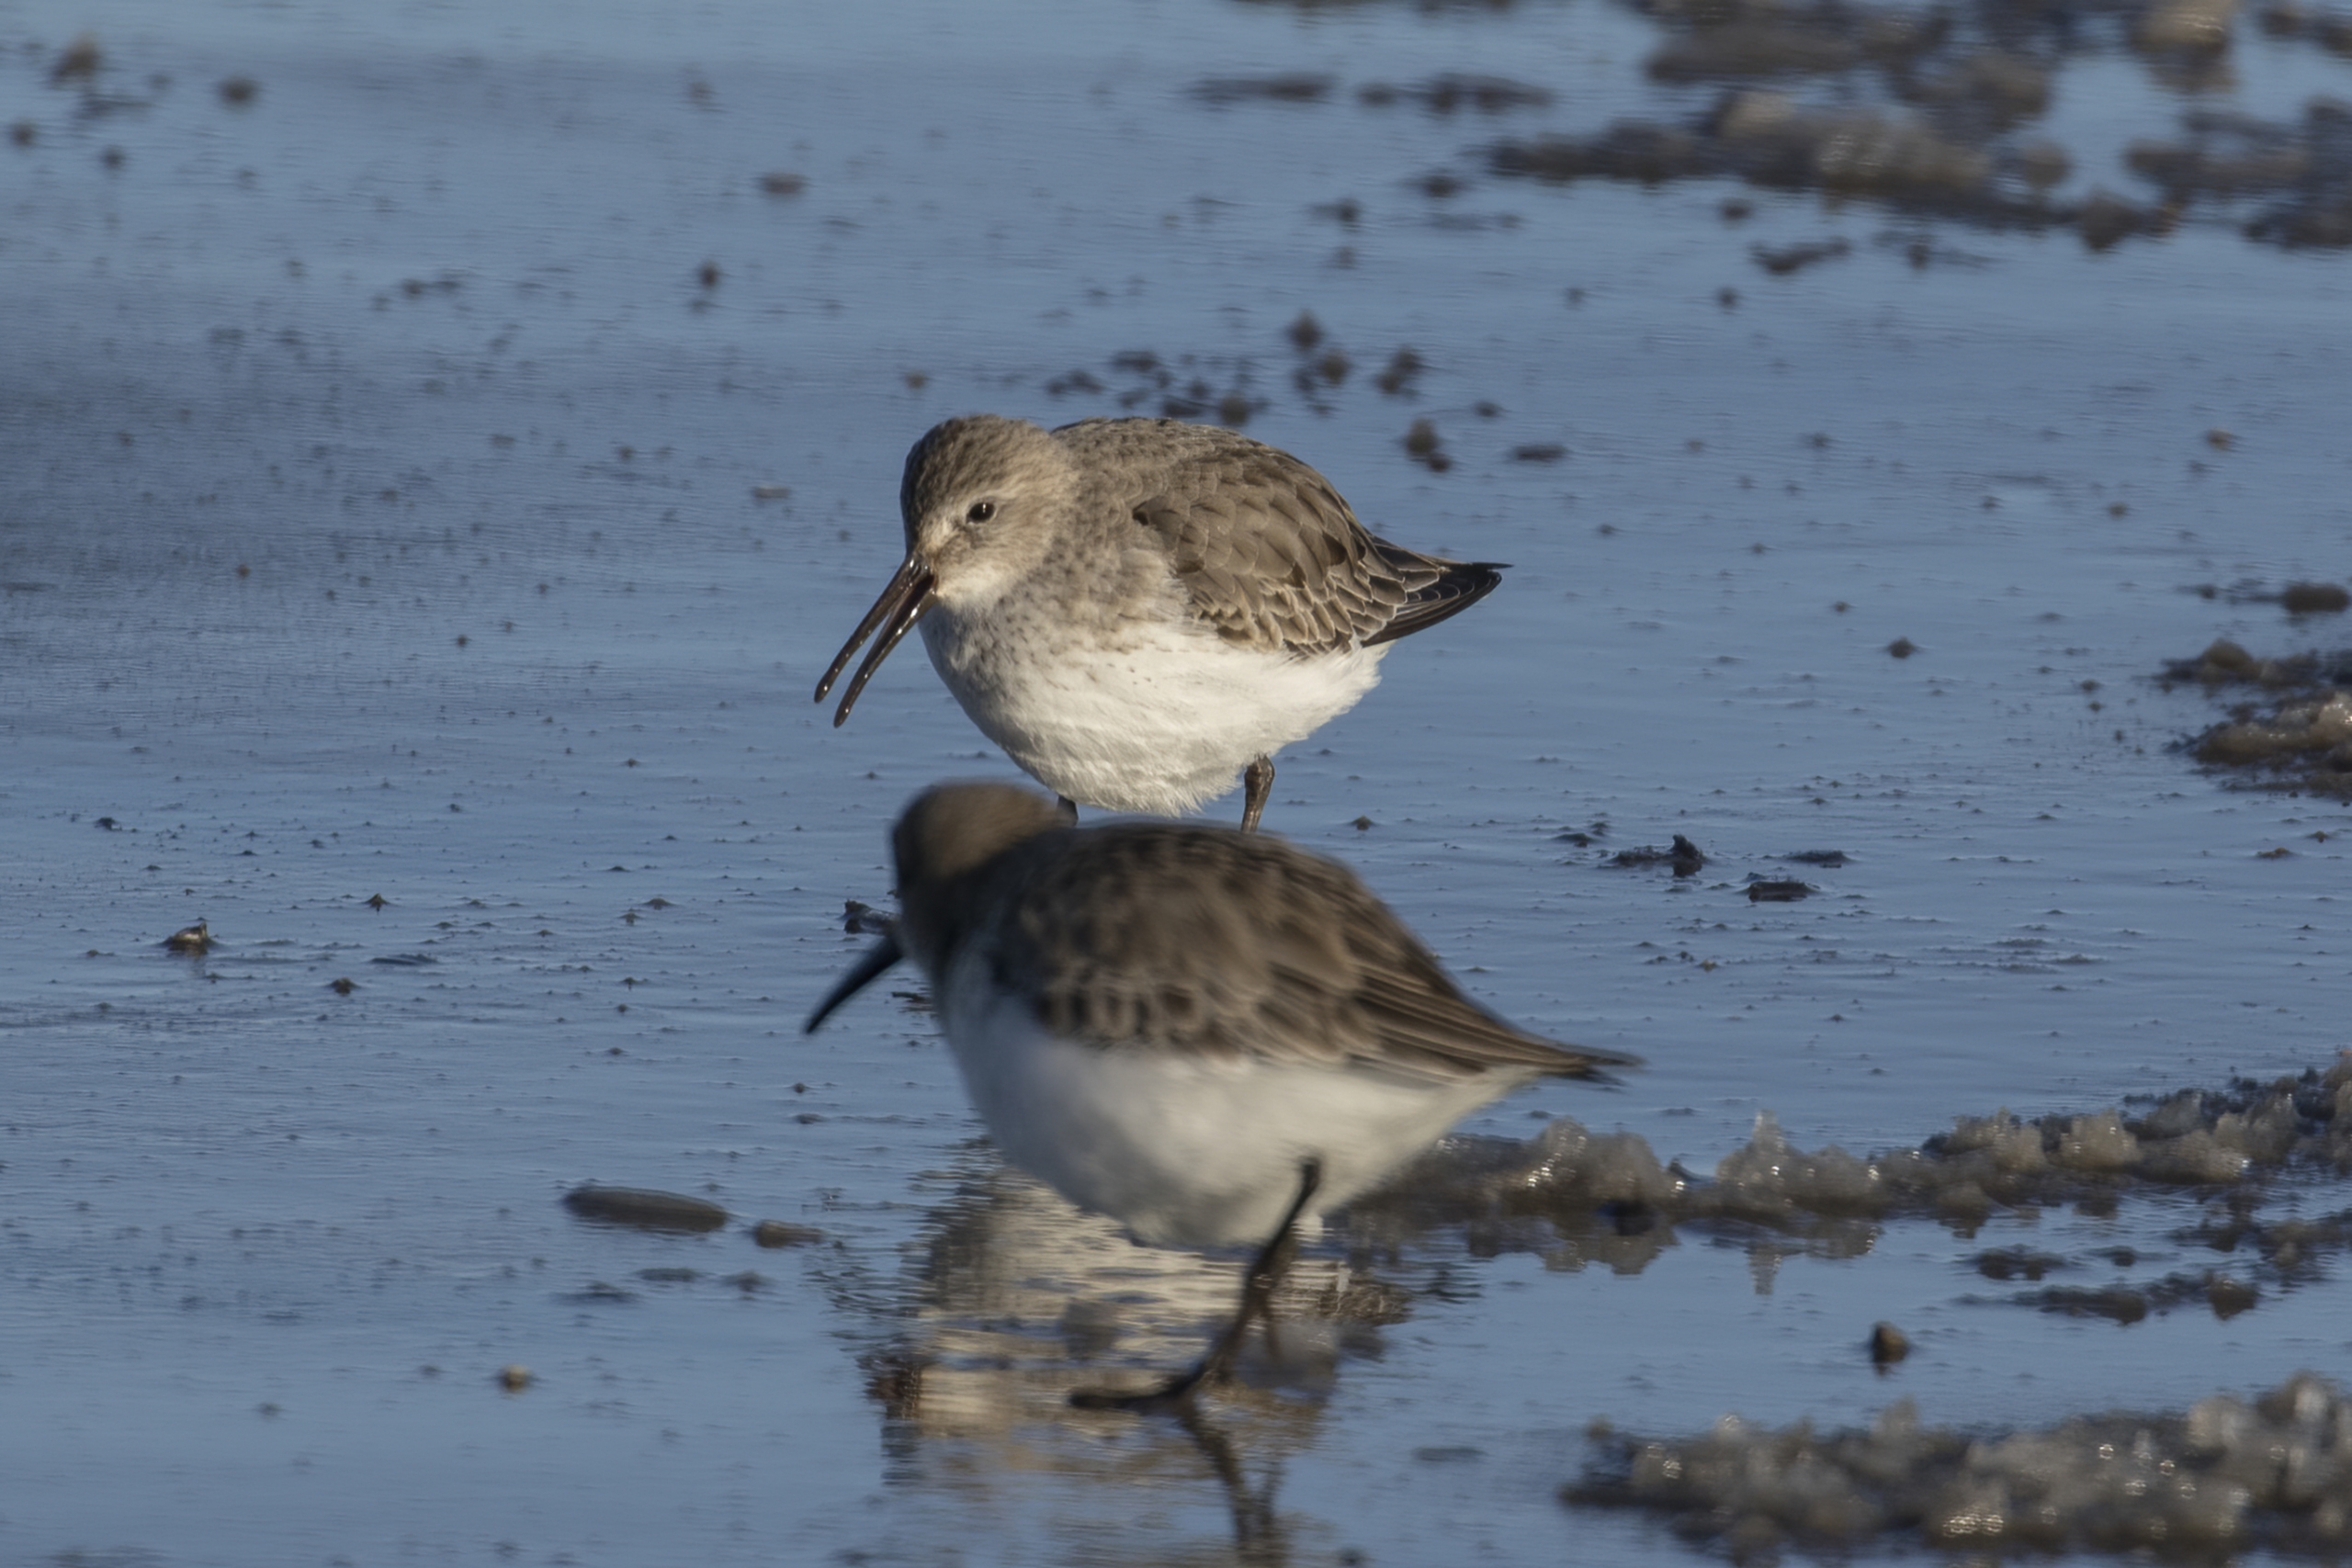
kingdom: Animalia
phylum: Chordata
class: Aves
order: Charadriiformes
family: Scolopacidae
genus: Calidris
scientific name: Calidris alpina
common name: Almindelig ryle
